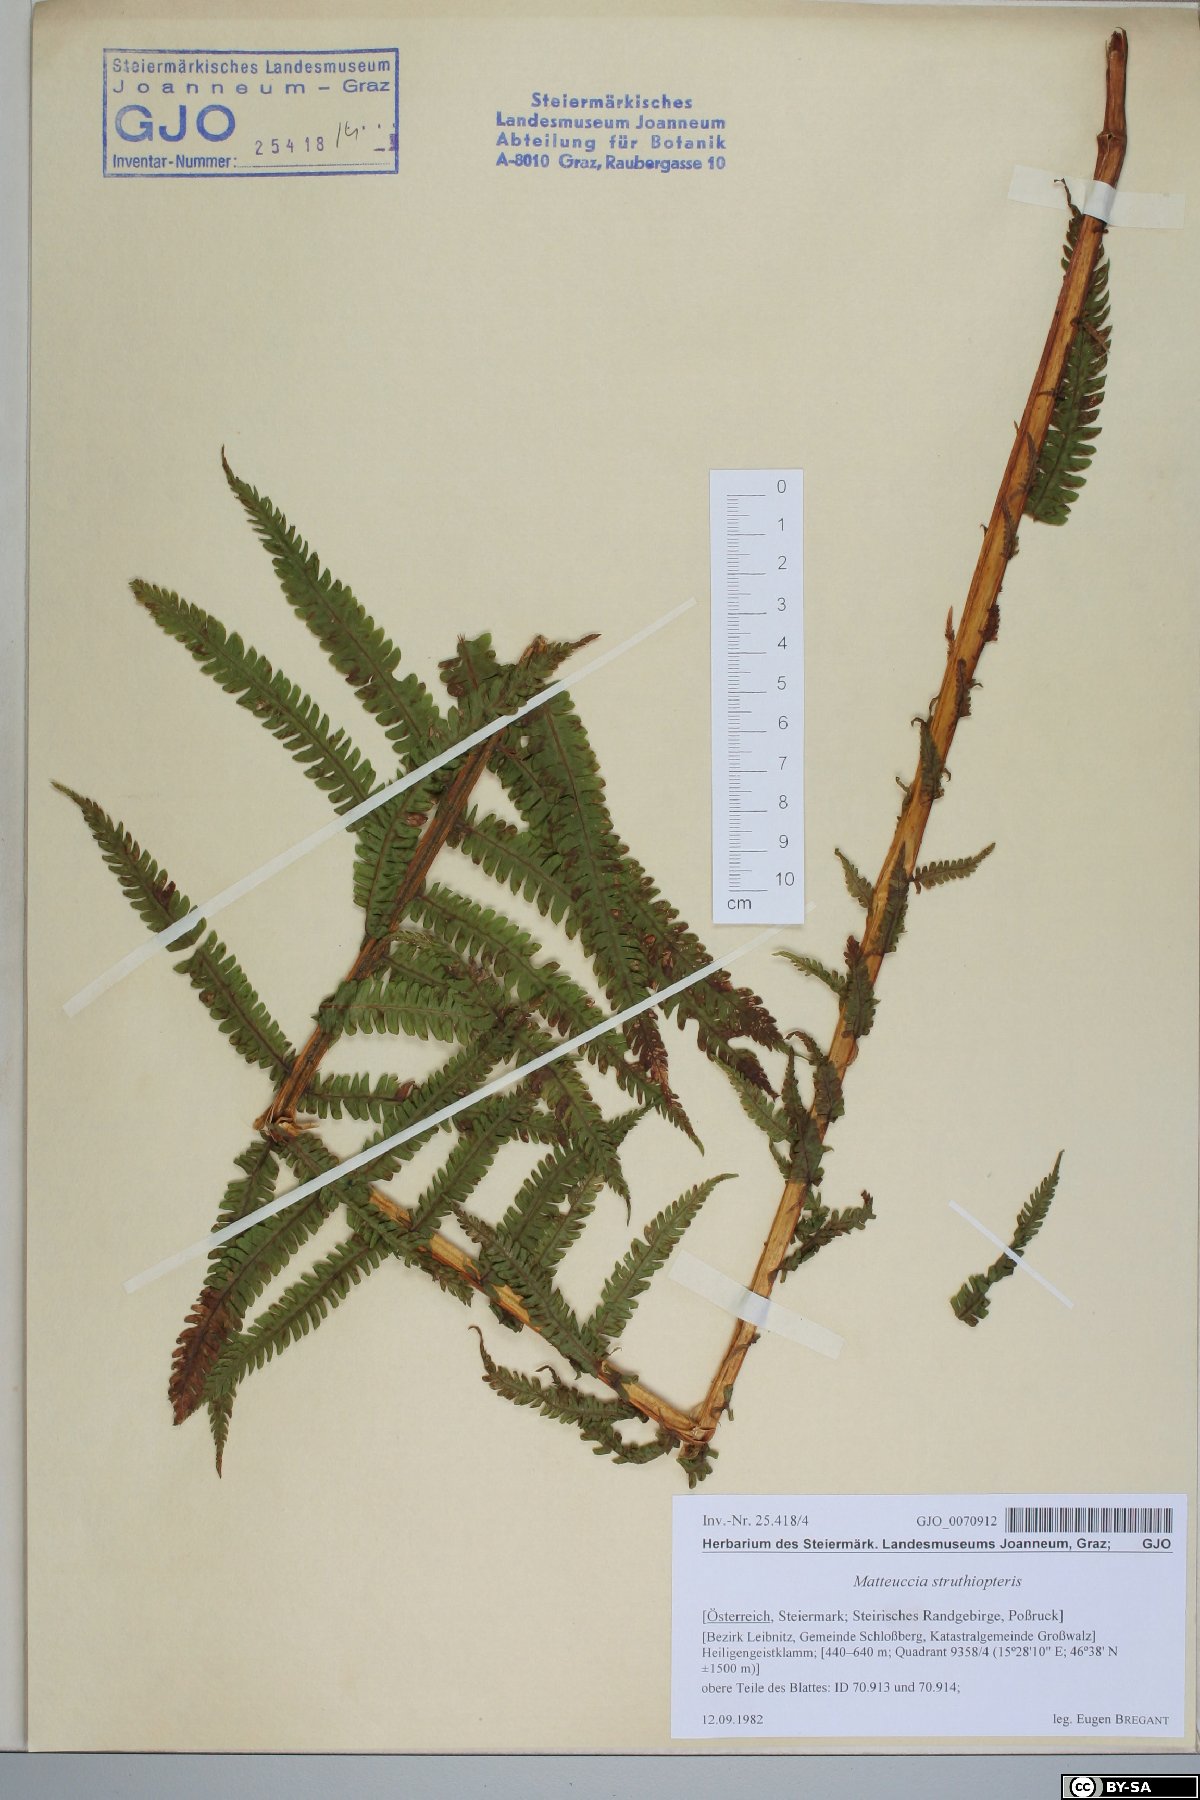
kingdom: Plantae
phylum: Tracheophyta
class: Polypodiopsida
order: Polypodiales
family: Onocleaceae
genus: Matteuccia
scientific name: Matteuccia struthiopteris
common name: Ostrich fern
